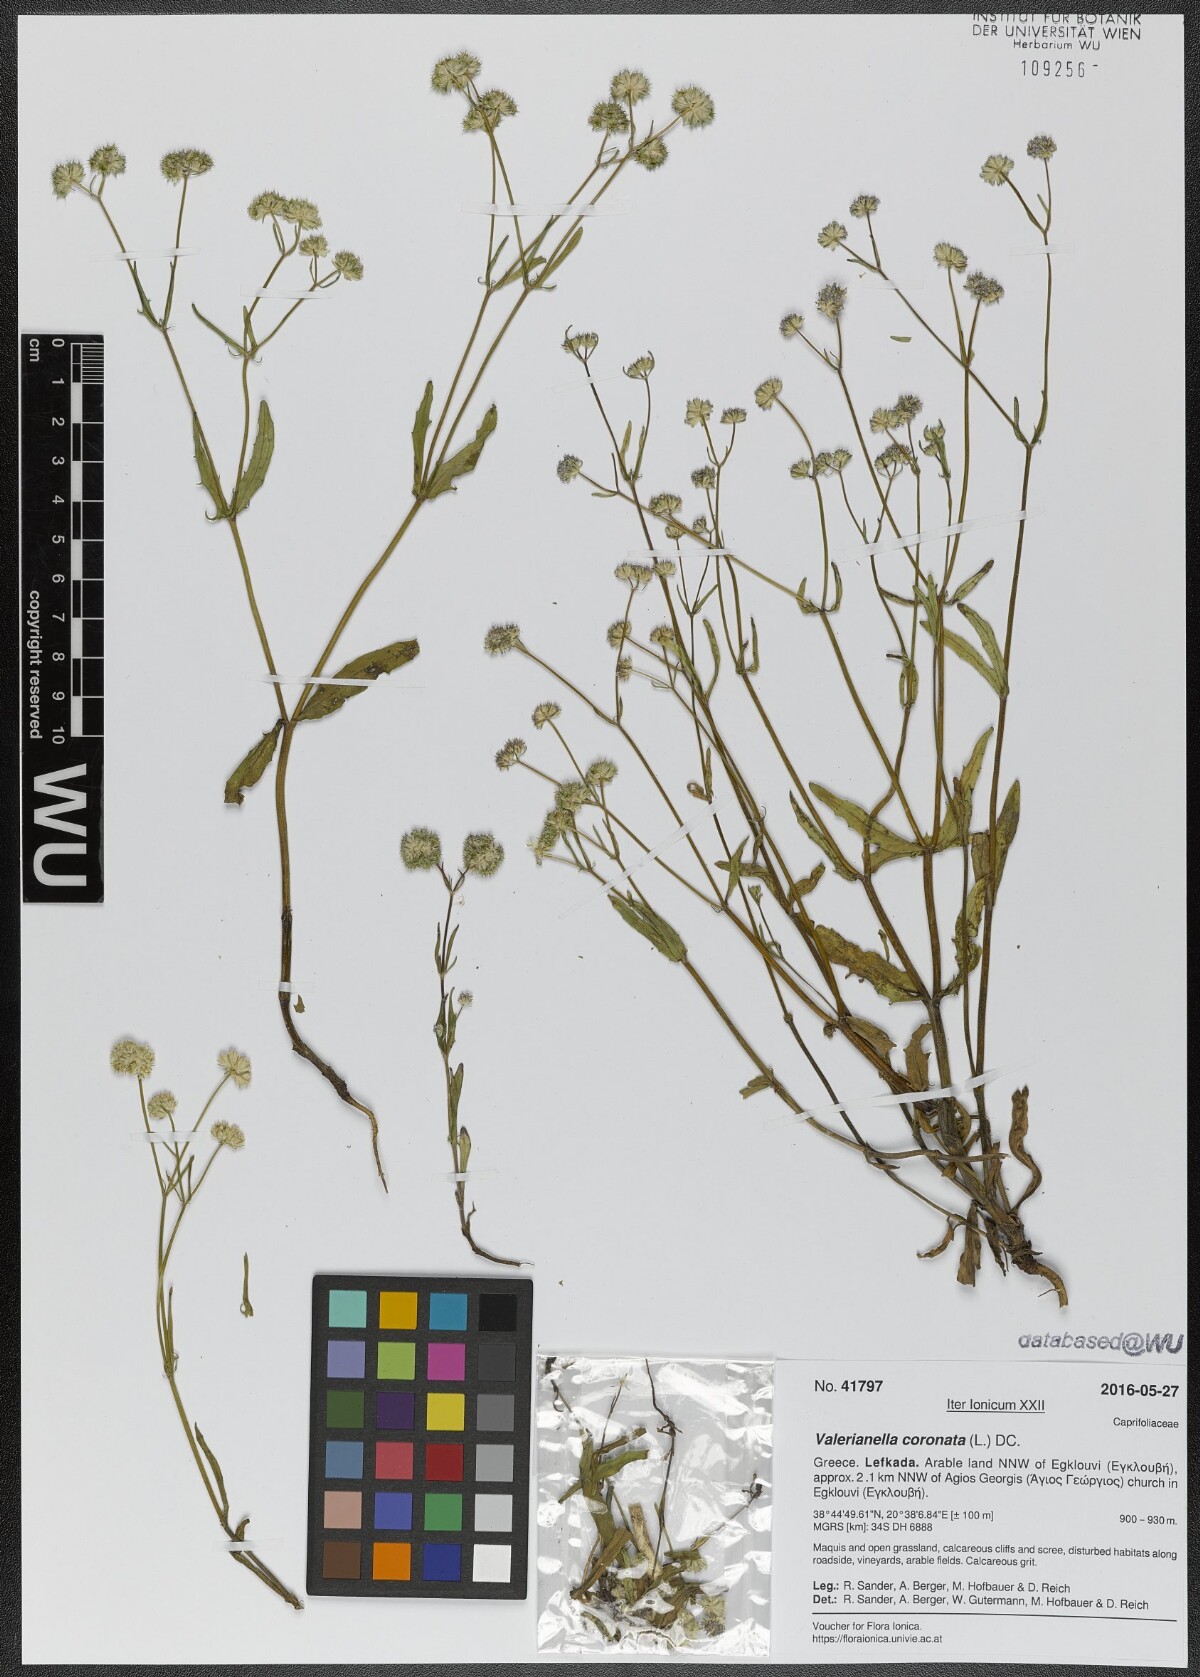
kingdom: Plantae
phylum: Tracheophyta
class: Magnoliopsida
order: Dipsacales
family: Caprifoliaceae
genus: Valerianella
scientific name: Valerianella coronata
